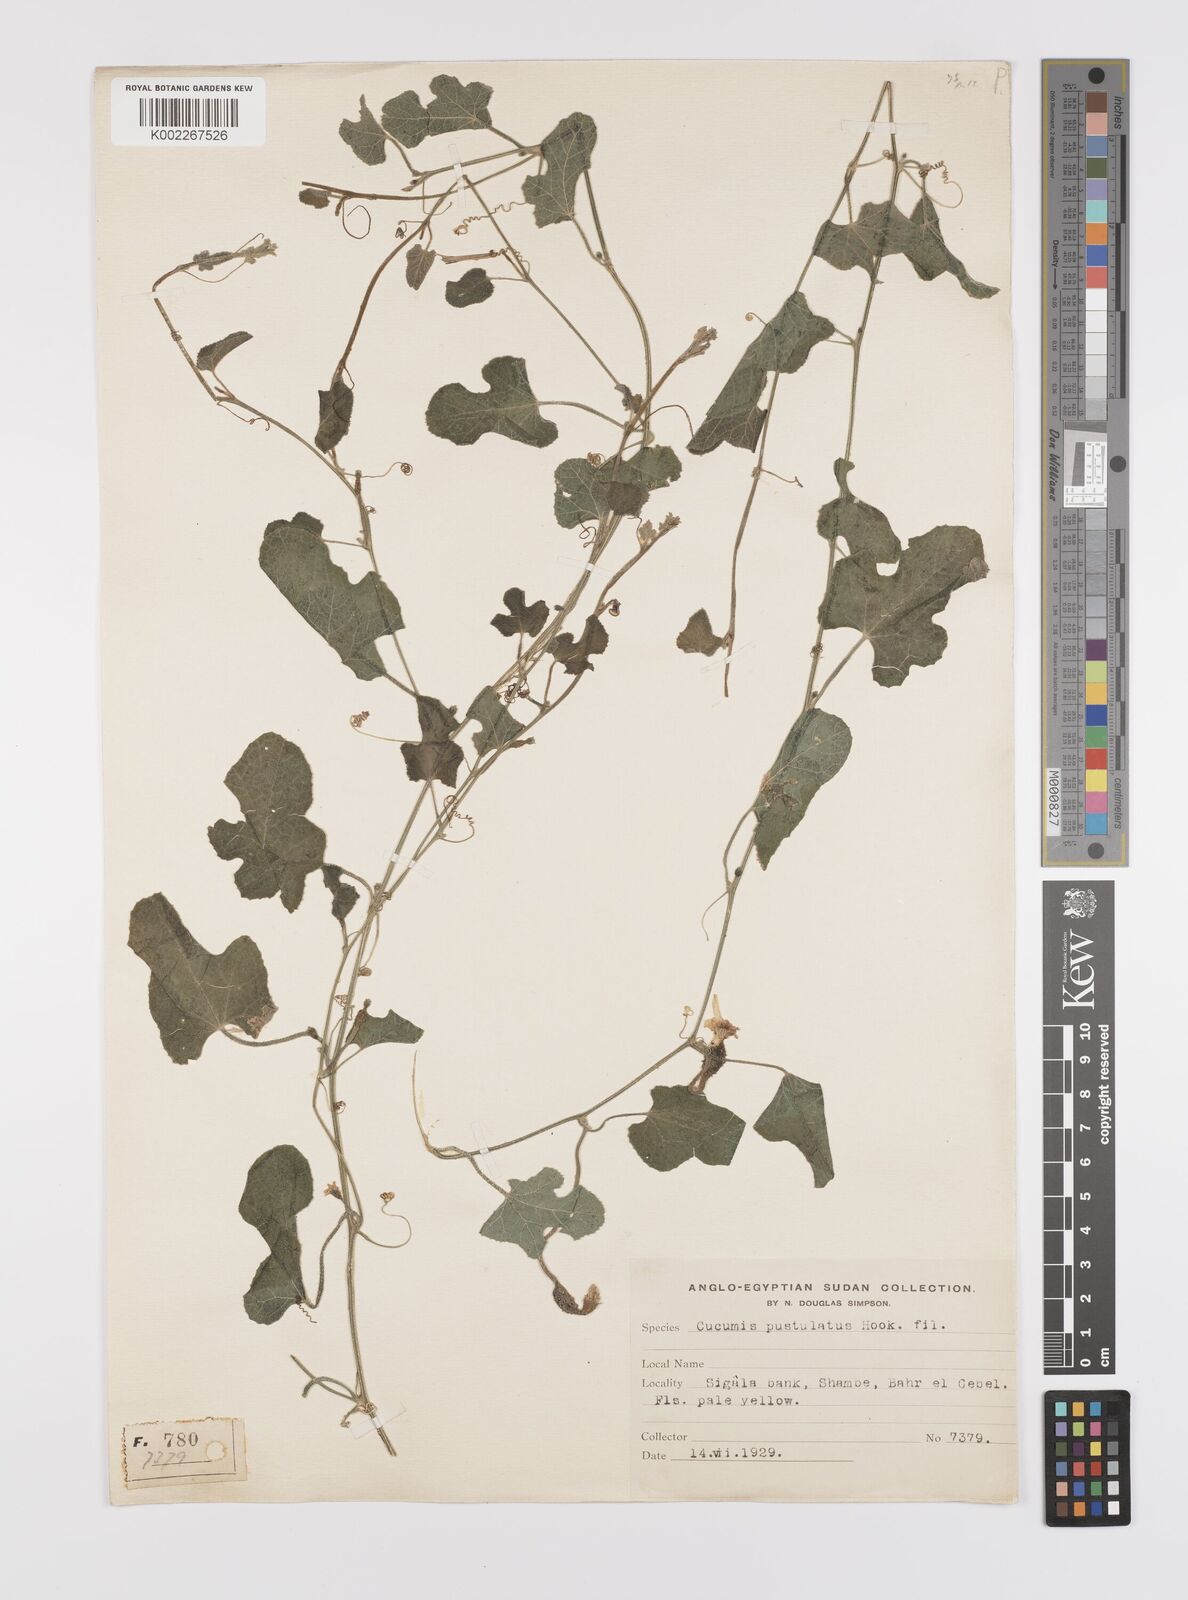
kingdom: Plantae
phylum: Tracheophyta
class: Magnoliopsida
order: Cucurbitales
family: Cucurbitaceae
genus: Cucumis
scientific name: Cucumis pustulatus
